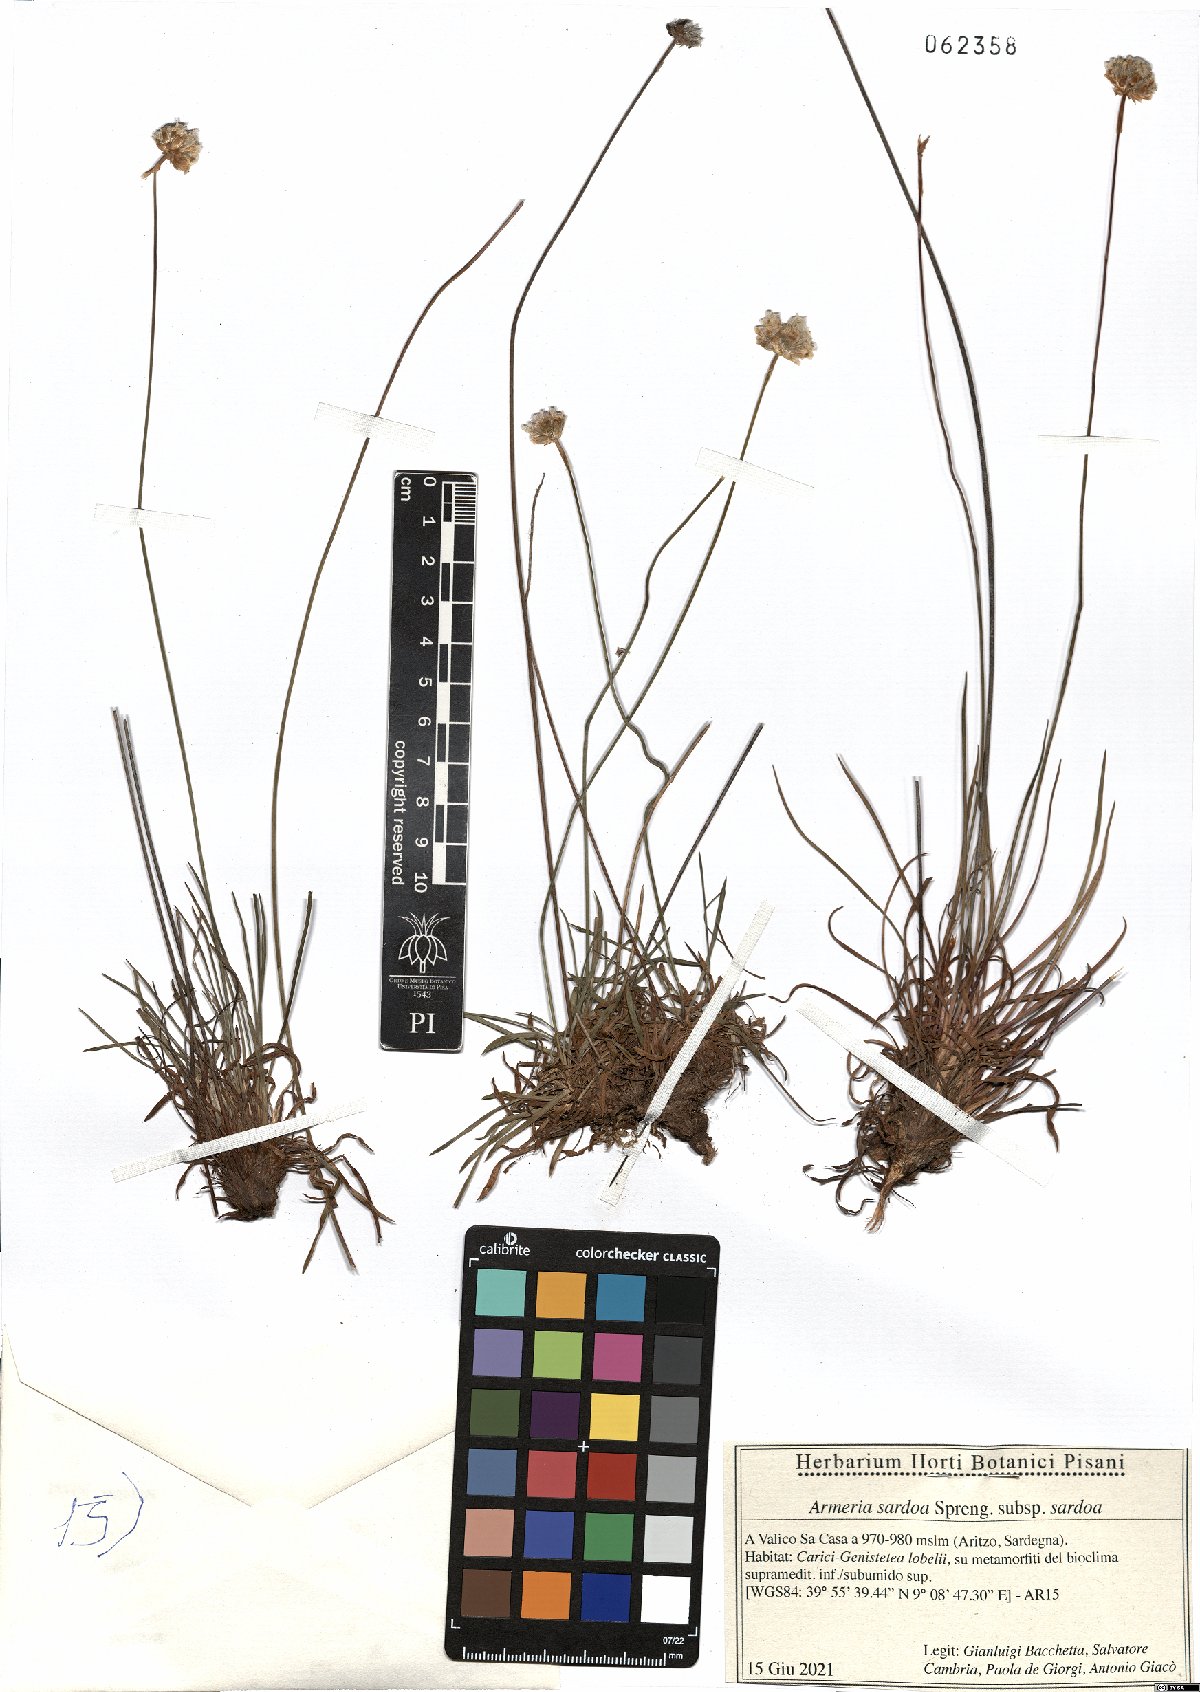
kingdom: Plantae
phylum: Tracheophyta
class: Magnoliopsida
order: Caryophyllales
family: Plumbaginaceae
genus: Armeria
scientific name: Armeria sardoa
